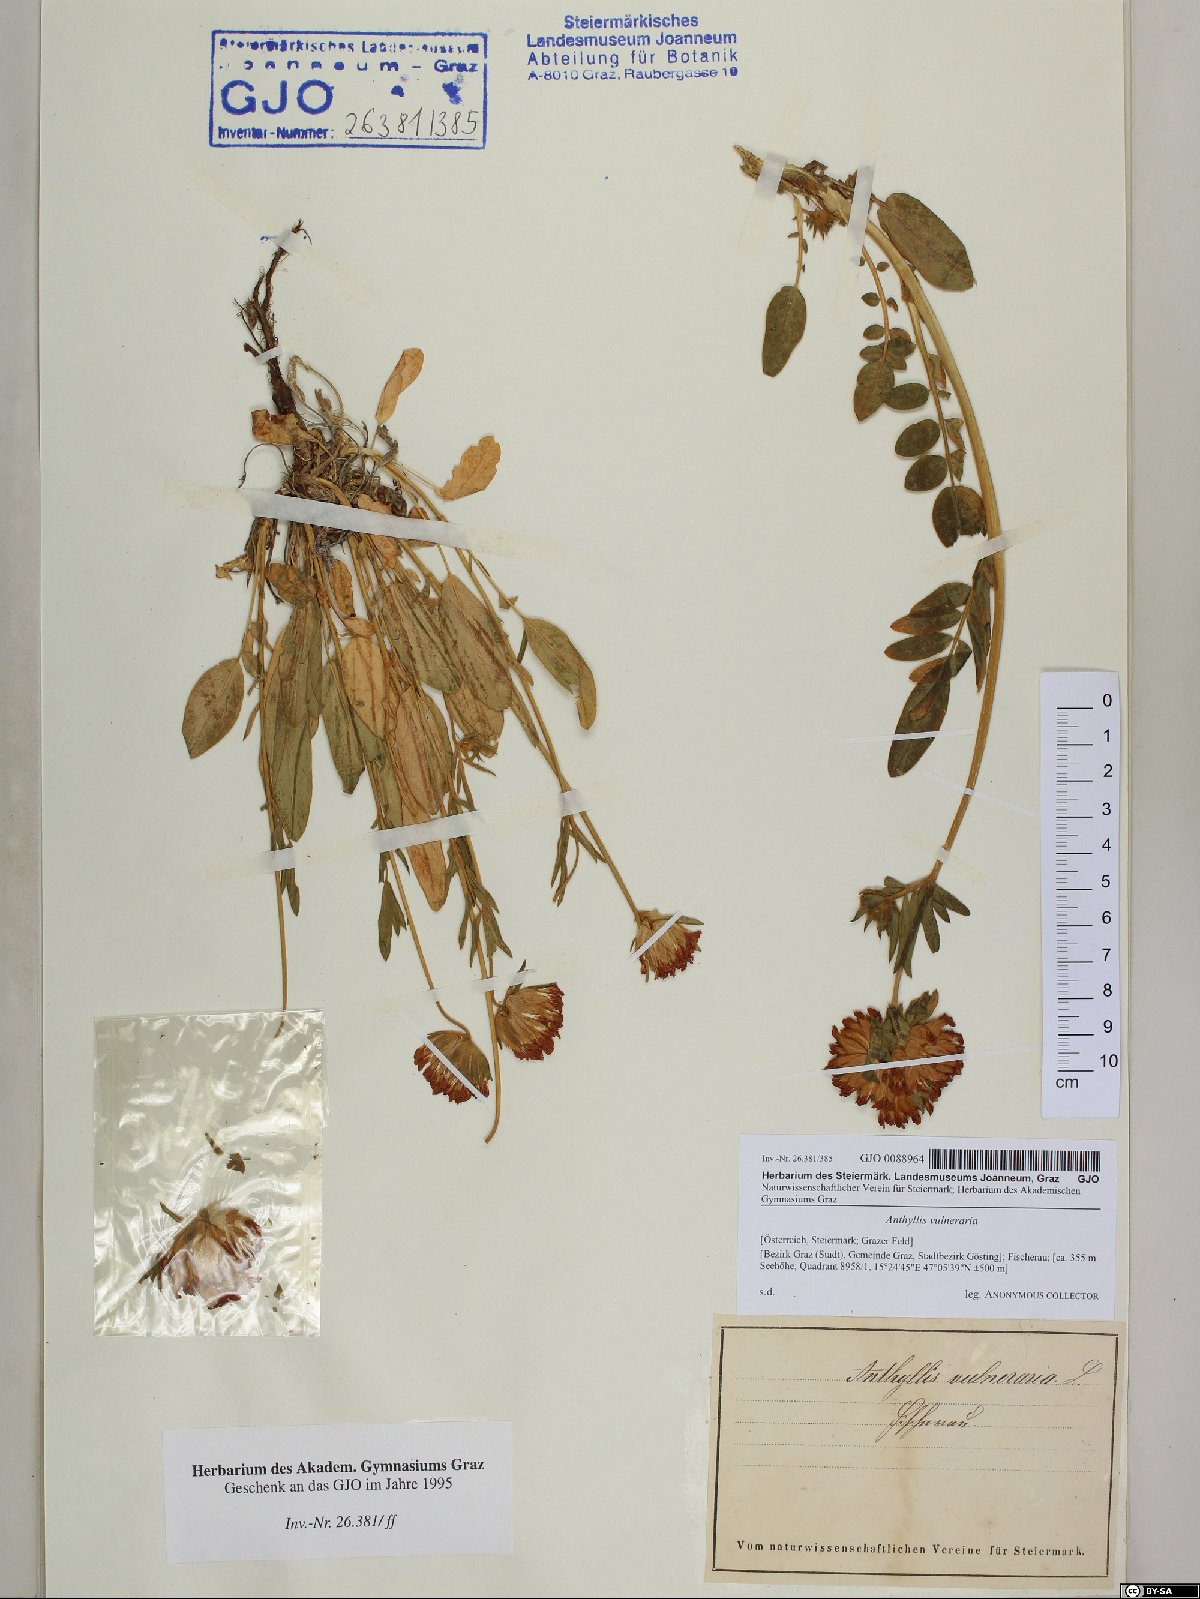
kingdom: Plantae
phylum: Tracheophyta
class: Magnoliopsida
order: Fabales
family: Fabaceae
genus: Anthyllis
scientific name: Anthyllis vulneraria
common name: Kidney vetch
